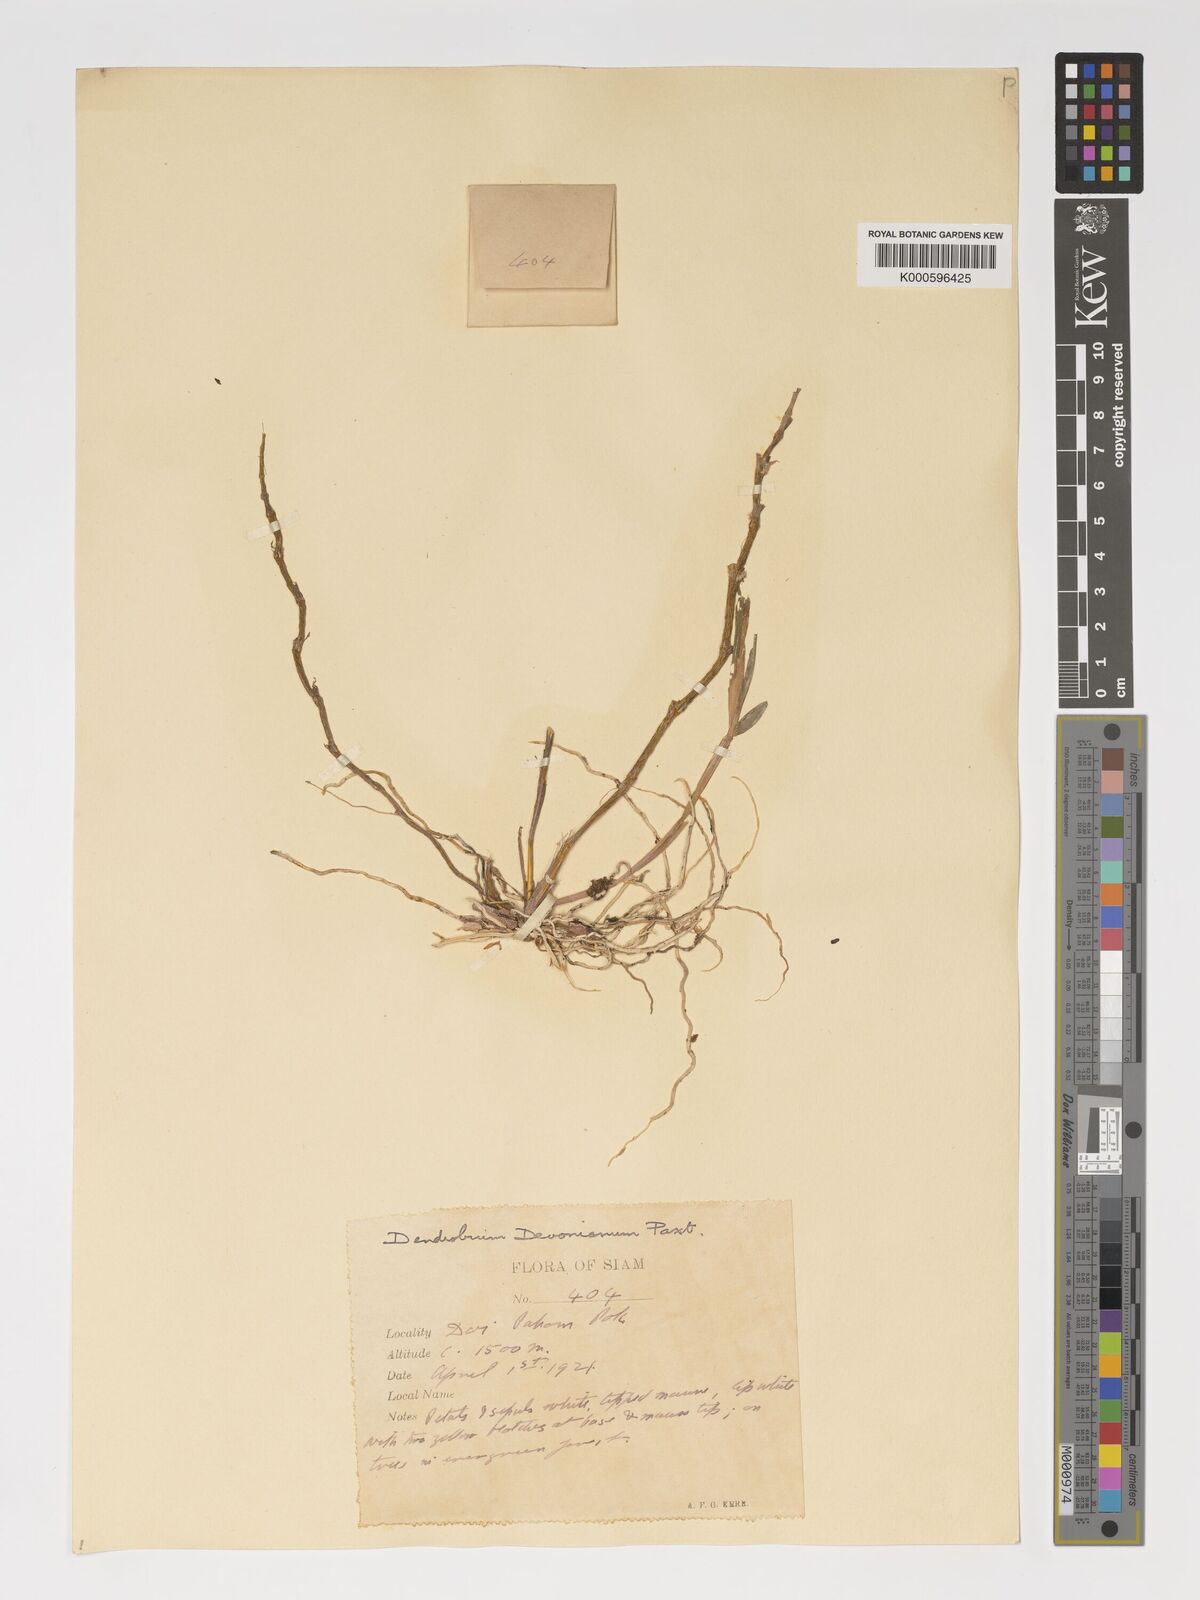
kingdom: Plantae
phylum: Tracheophyta
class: Liliopsida
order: Asparagales
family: Orchidaceae
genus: Dendrobium
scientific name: Dendrobium devonianum
